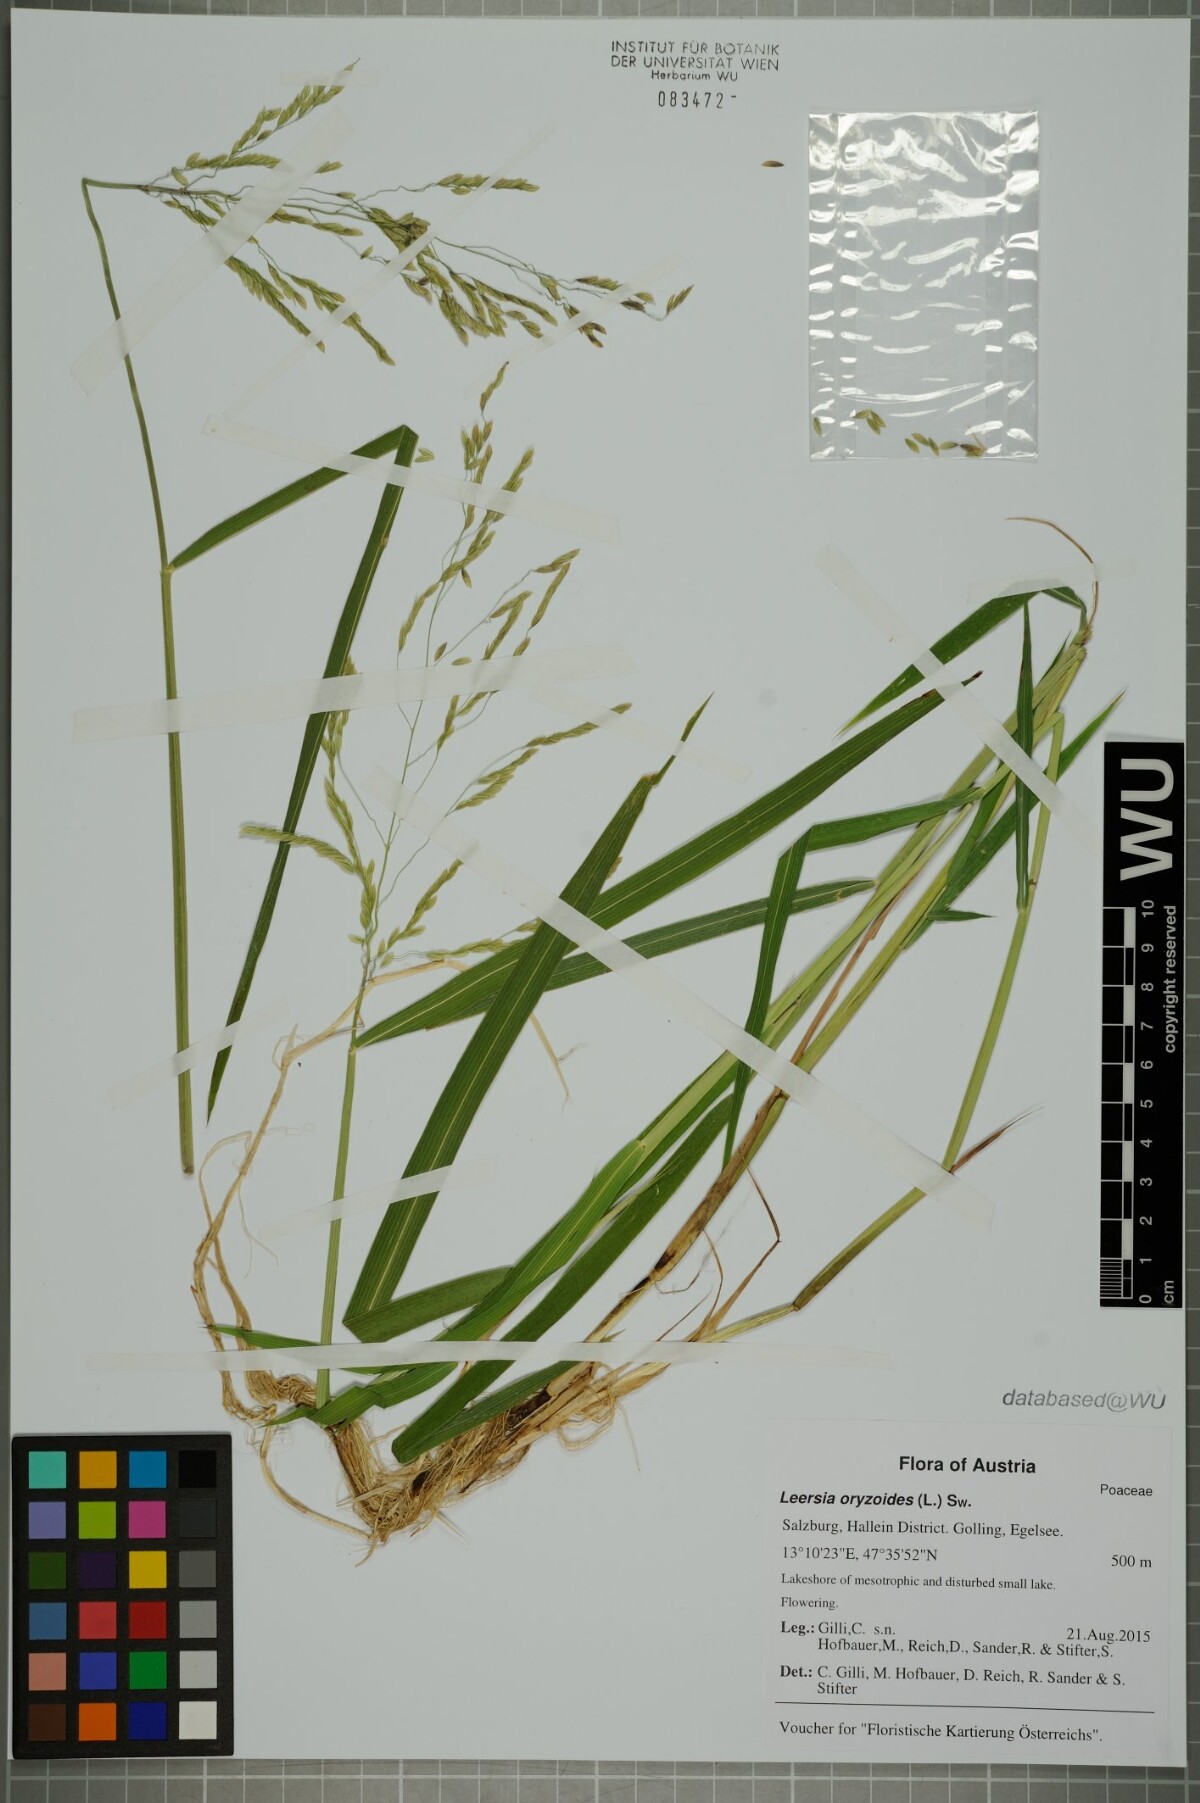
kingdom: Plantae
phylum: Tracheophyta
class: Liliopsida
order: Poales
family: Poaceae
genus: Leersia
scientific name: Leersia oryzoides
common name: Cut-grass
